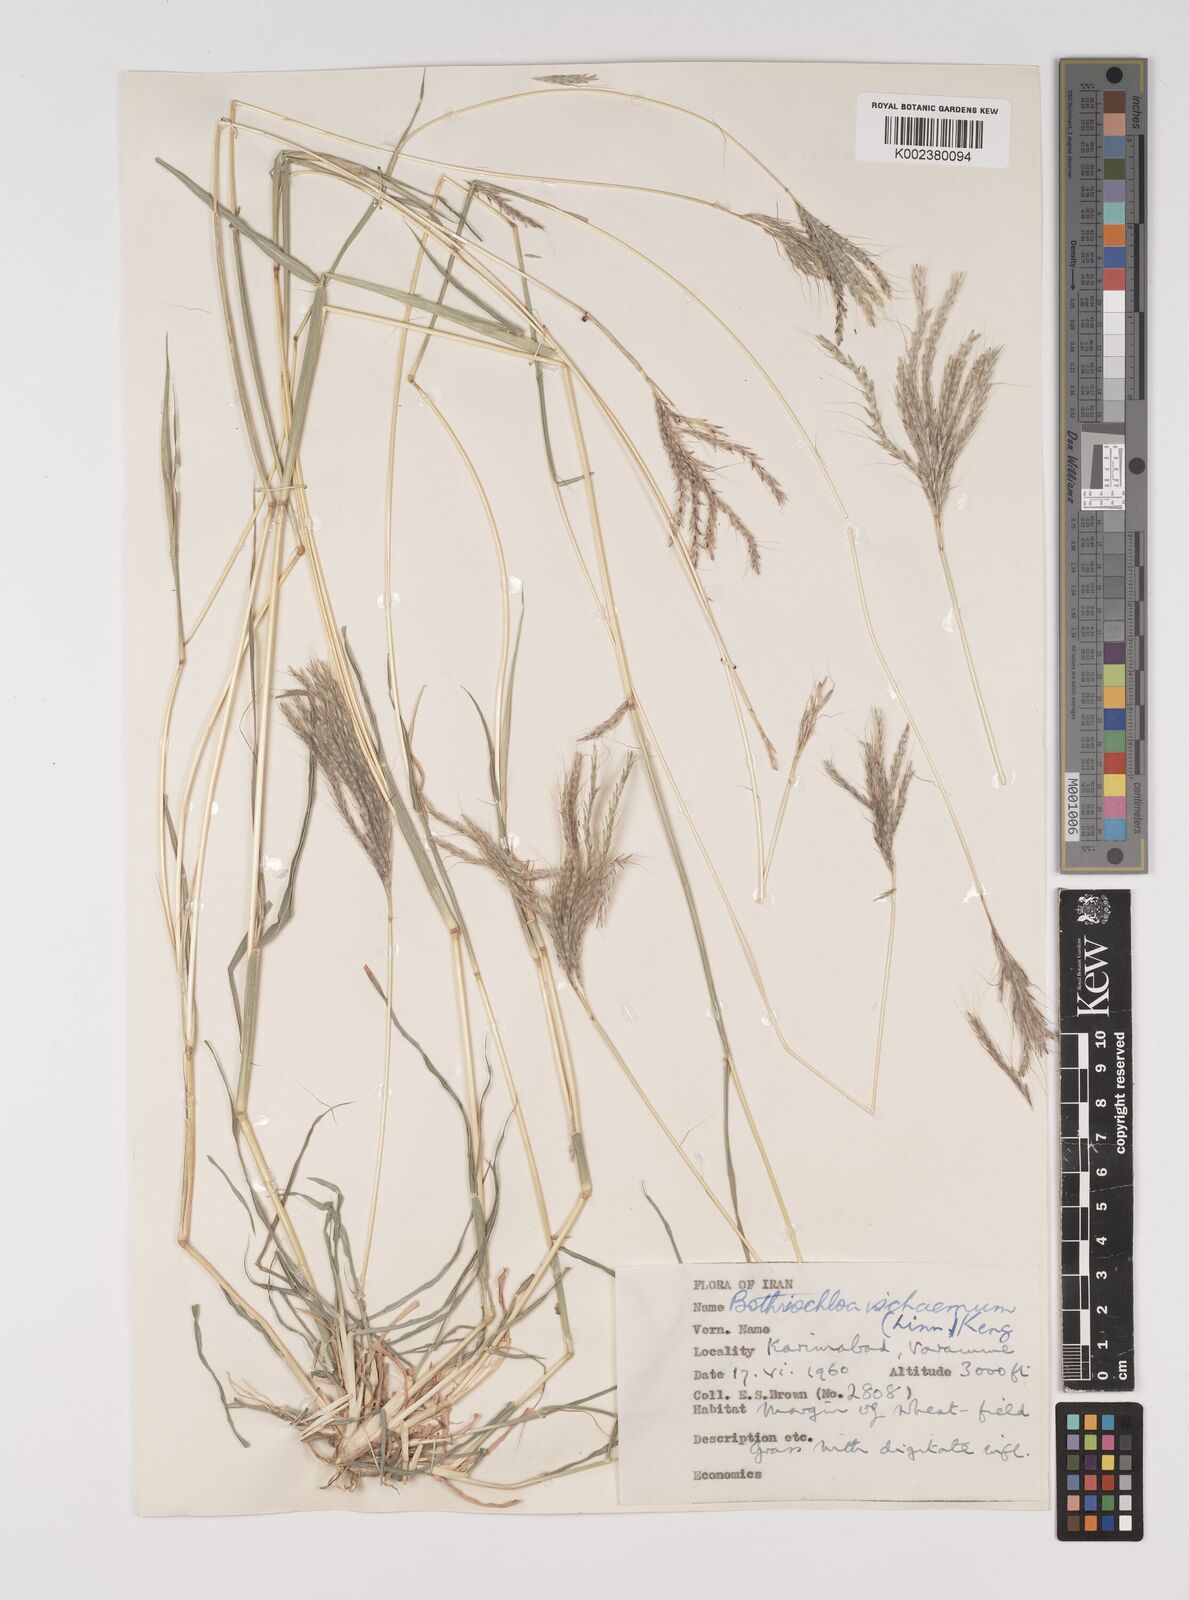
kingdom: Plantae
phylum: Tracheophyta
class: Liliopsida
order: Poales
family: Poaceae
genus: Bothriochloa
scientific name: Bothriochloa ischaemum
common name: Yellow bluestem
